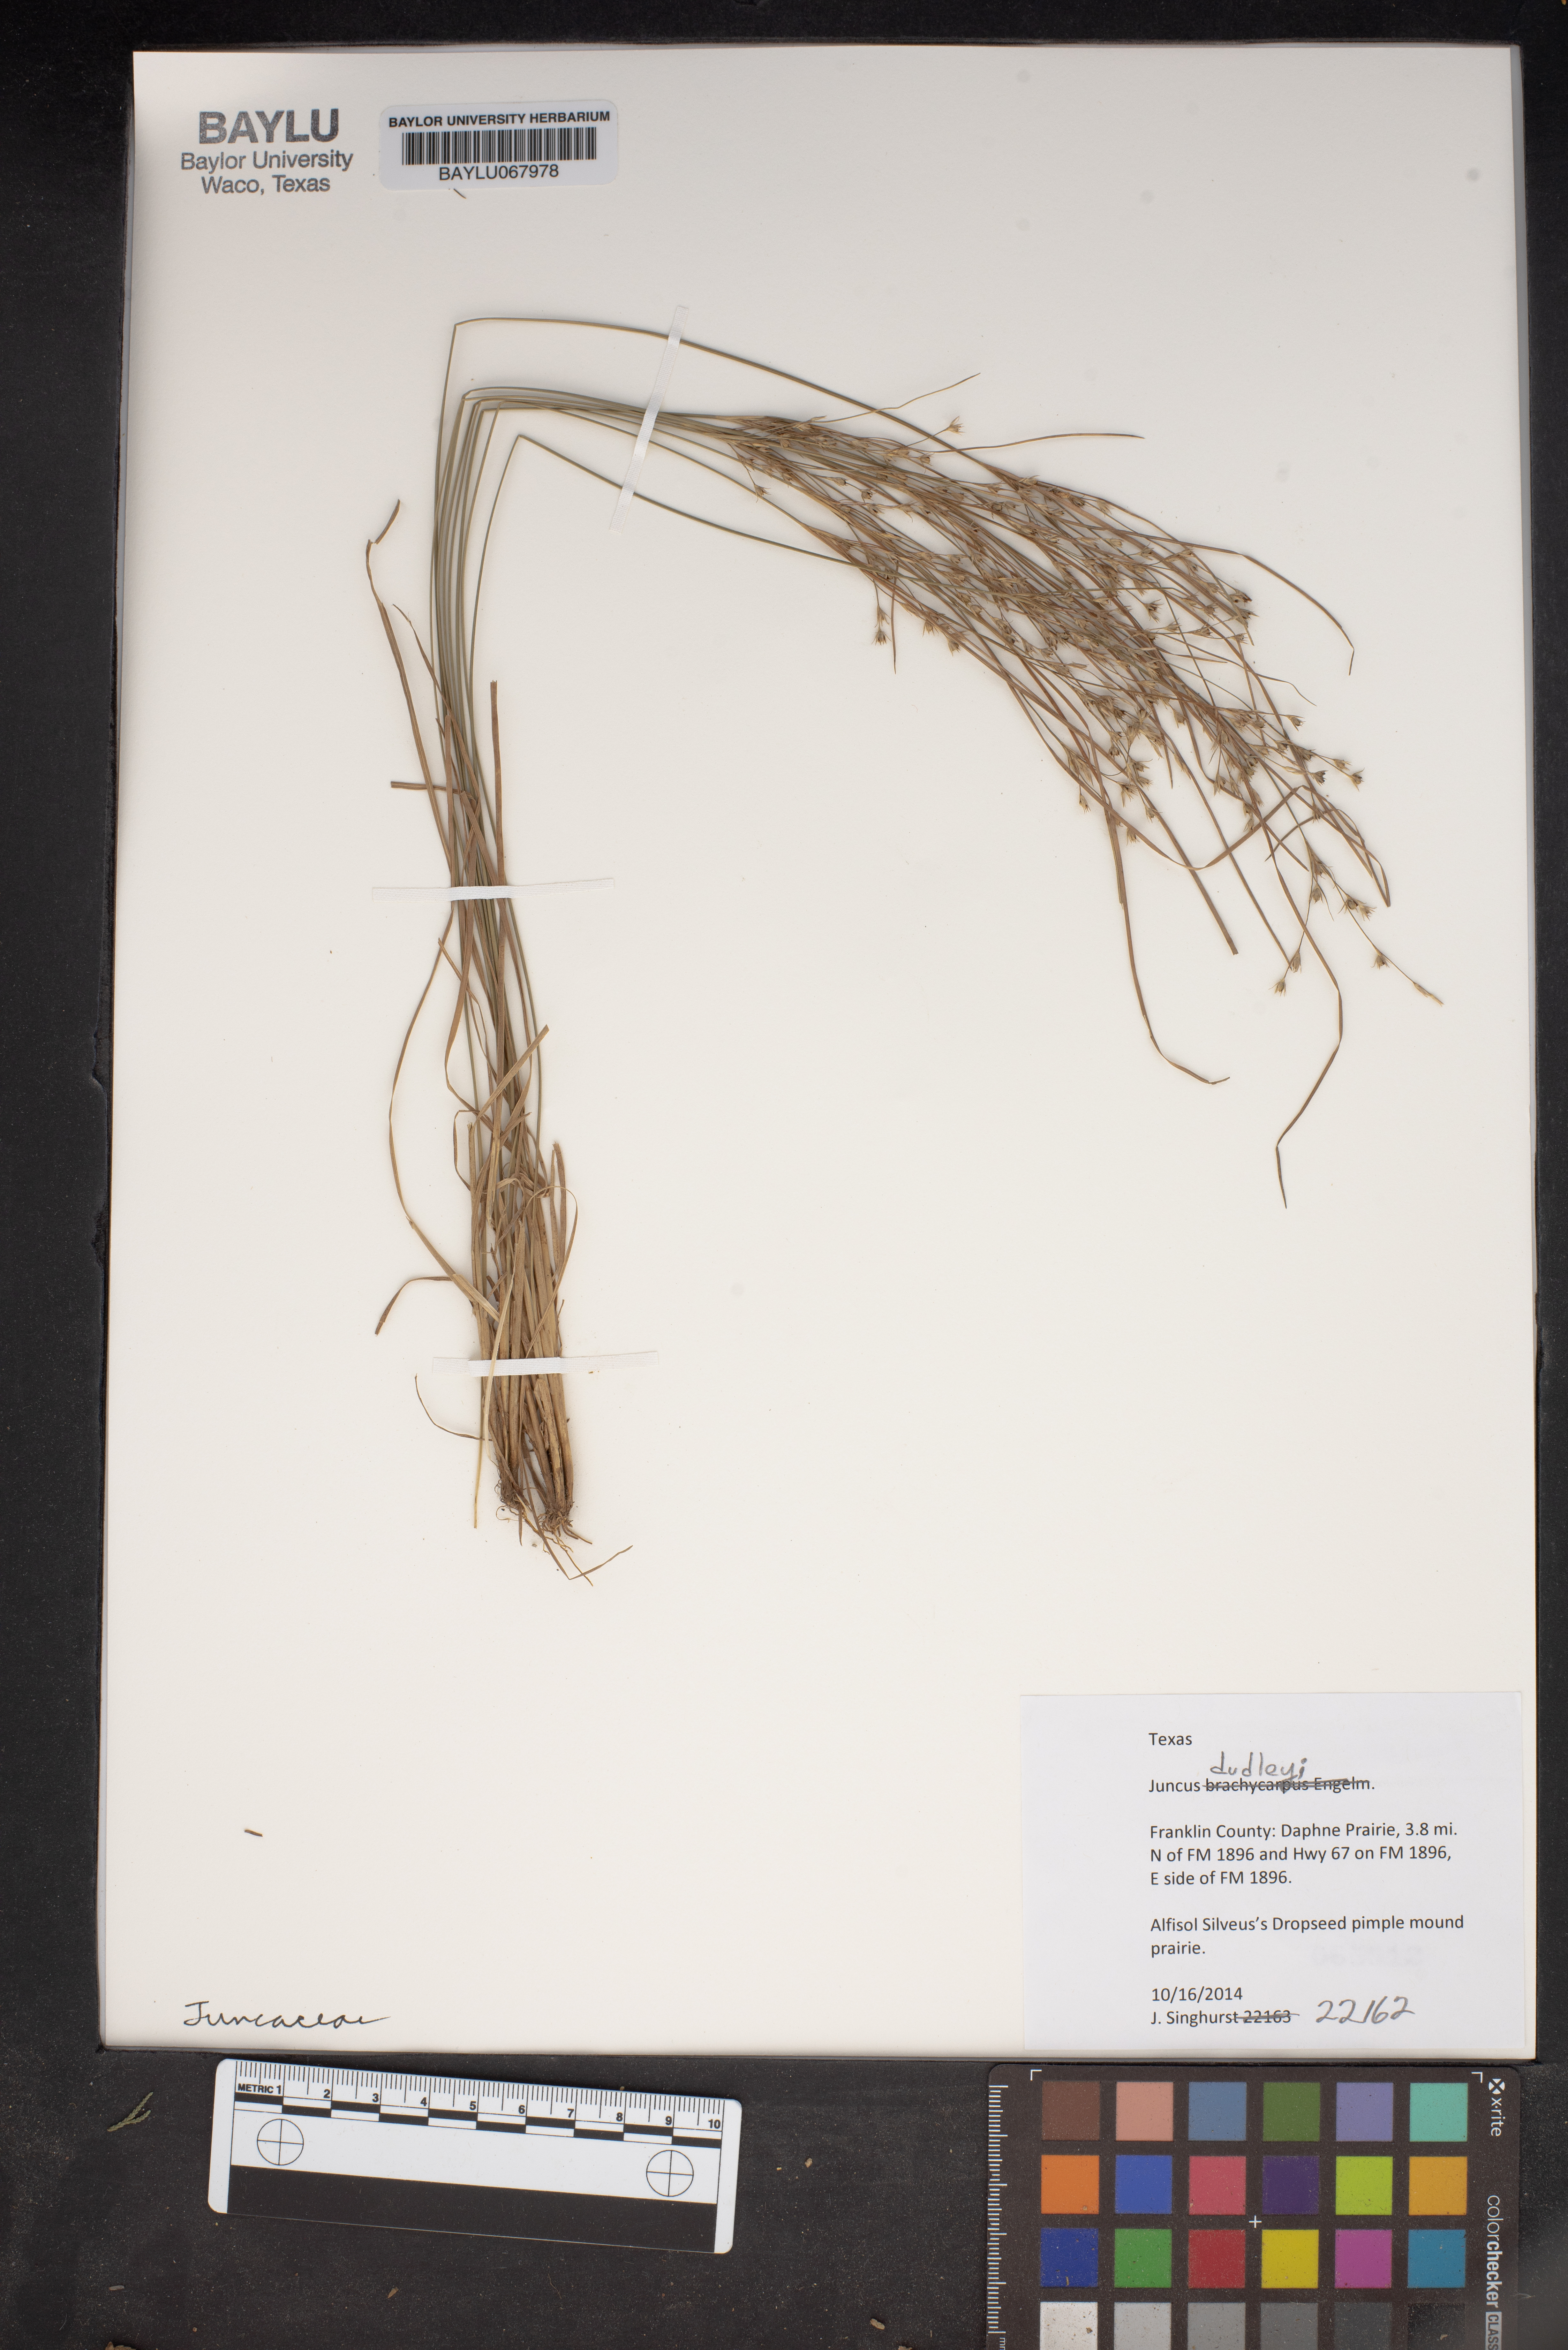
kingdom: Plantae
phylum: Tracheophyta
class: Liliopsida
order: Poales
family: Juncaceae
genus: Juncus
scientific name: Juncus dudleyi
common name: Dudley's rush
